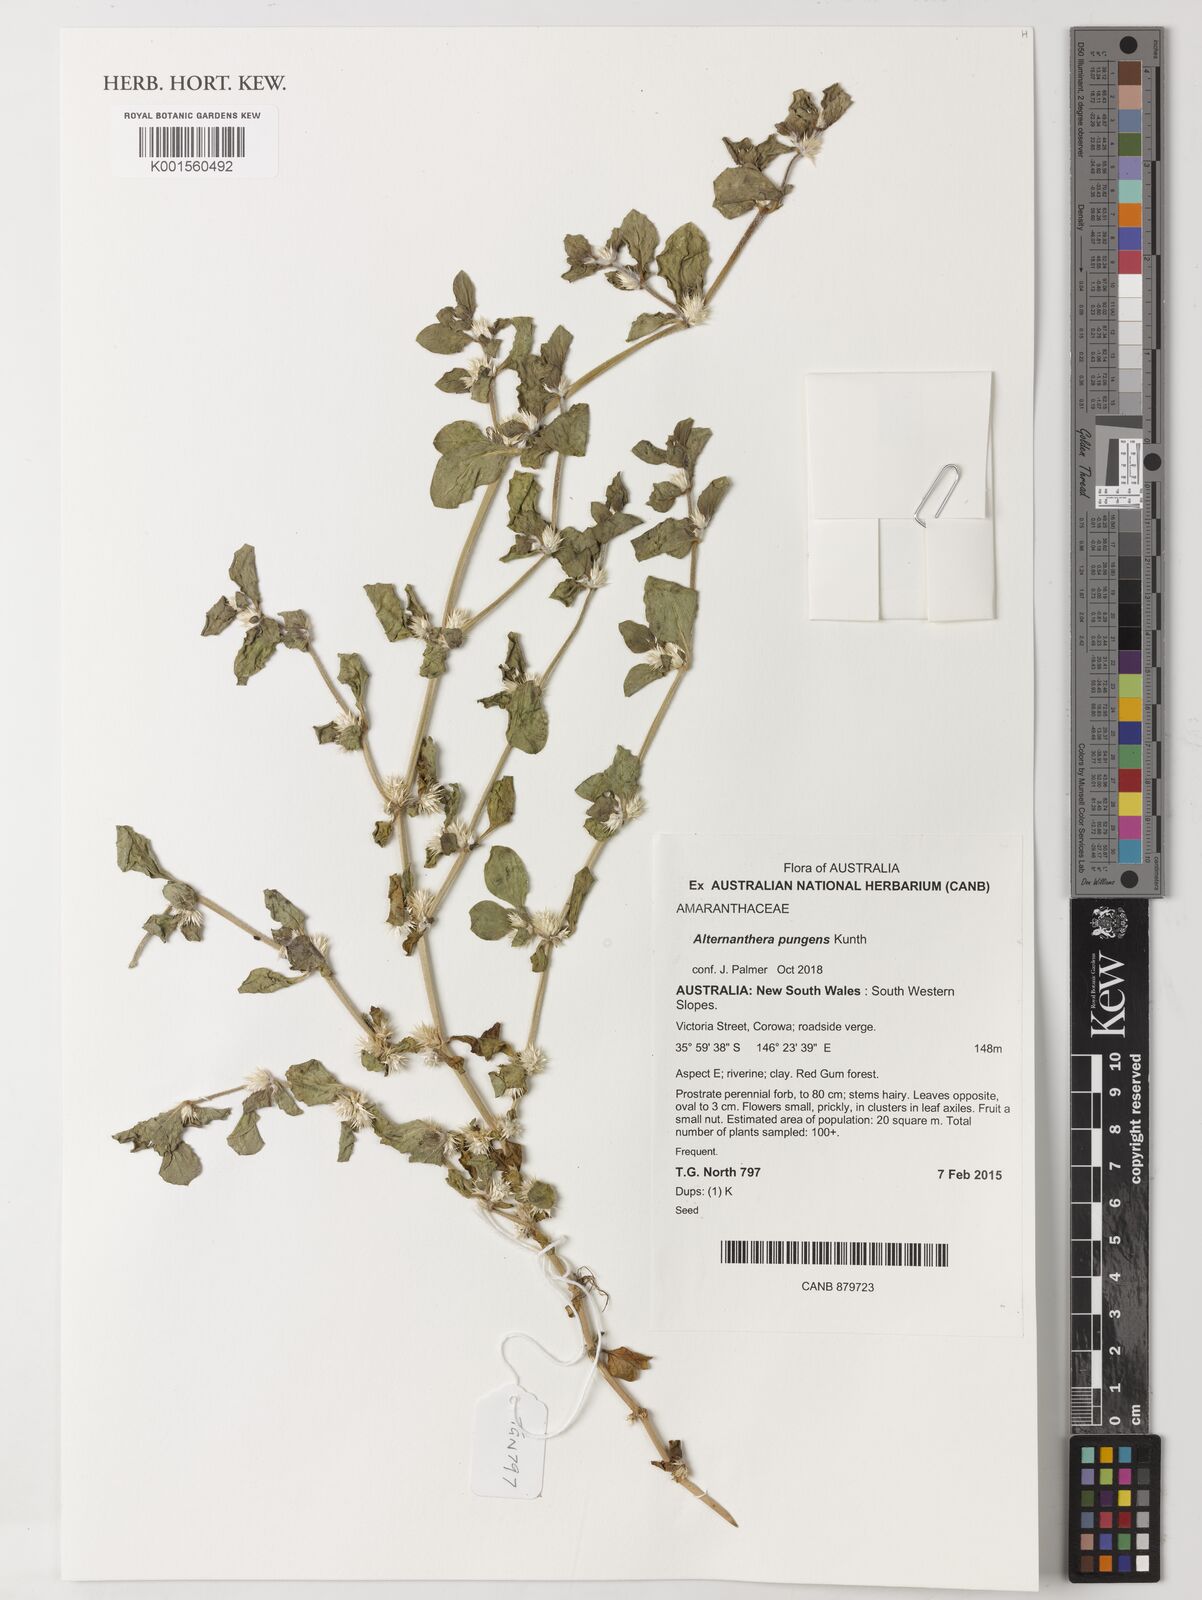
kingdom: Plantae
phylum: Tracheophyta
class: Magnoliopsida
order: Caryophyllales
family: Amaranthaceae
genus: Alternanthera
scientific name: Alternanthera pungens
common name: Khakiweed
